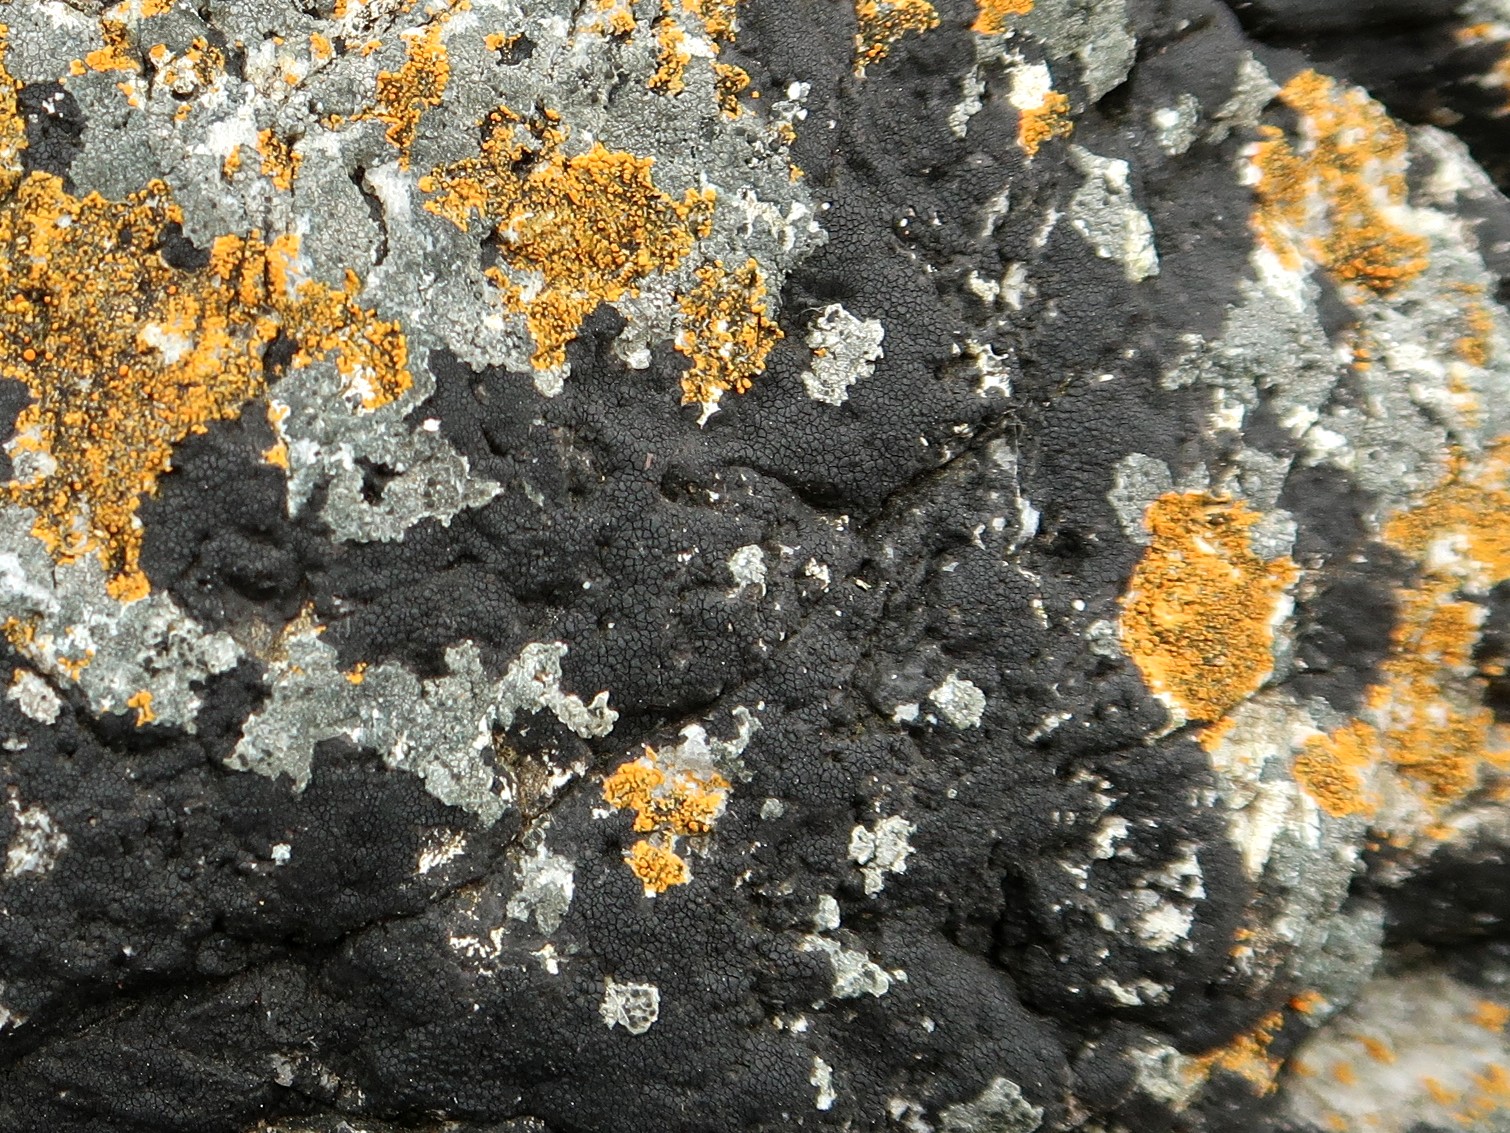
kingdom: Fungi
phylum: Ascomycota
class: Eurotiomycetes
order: Verrucariales
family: Verrucariaceae
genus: Hydropunctaria
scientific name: Hydropunctaria maura
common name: strand-vortelav
